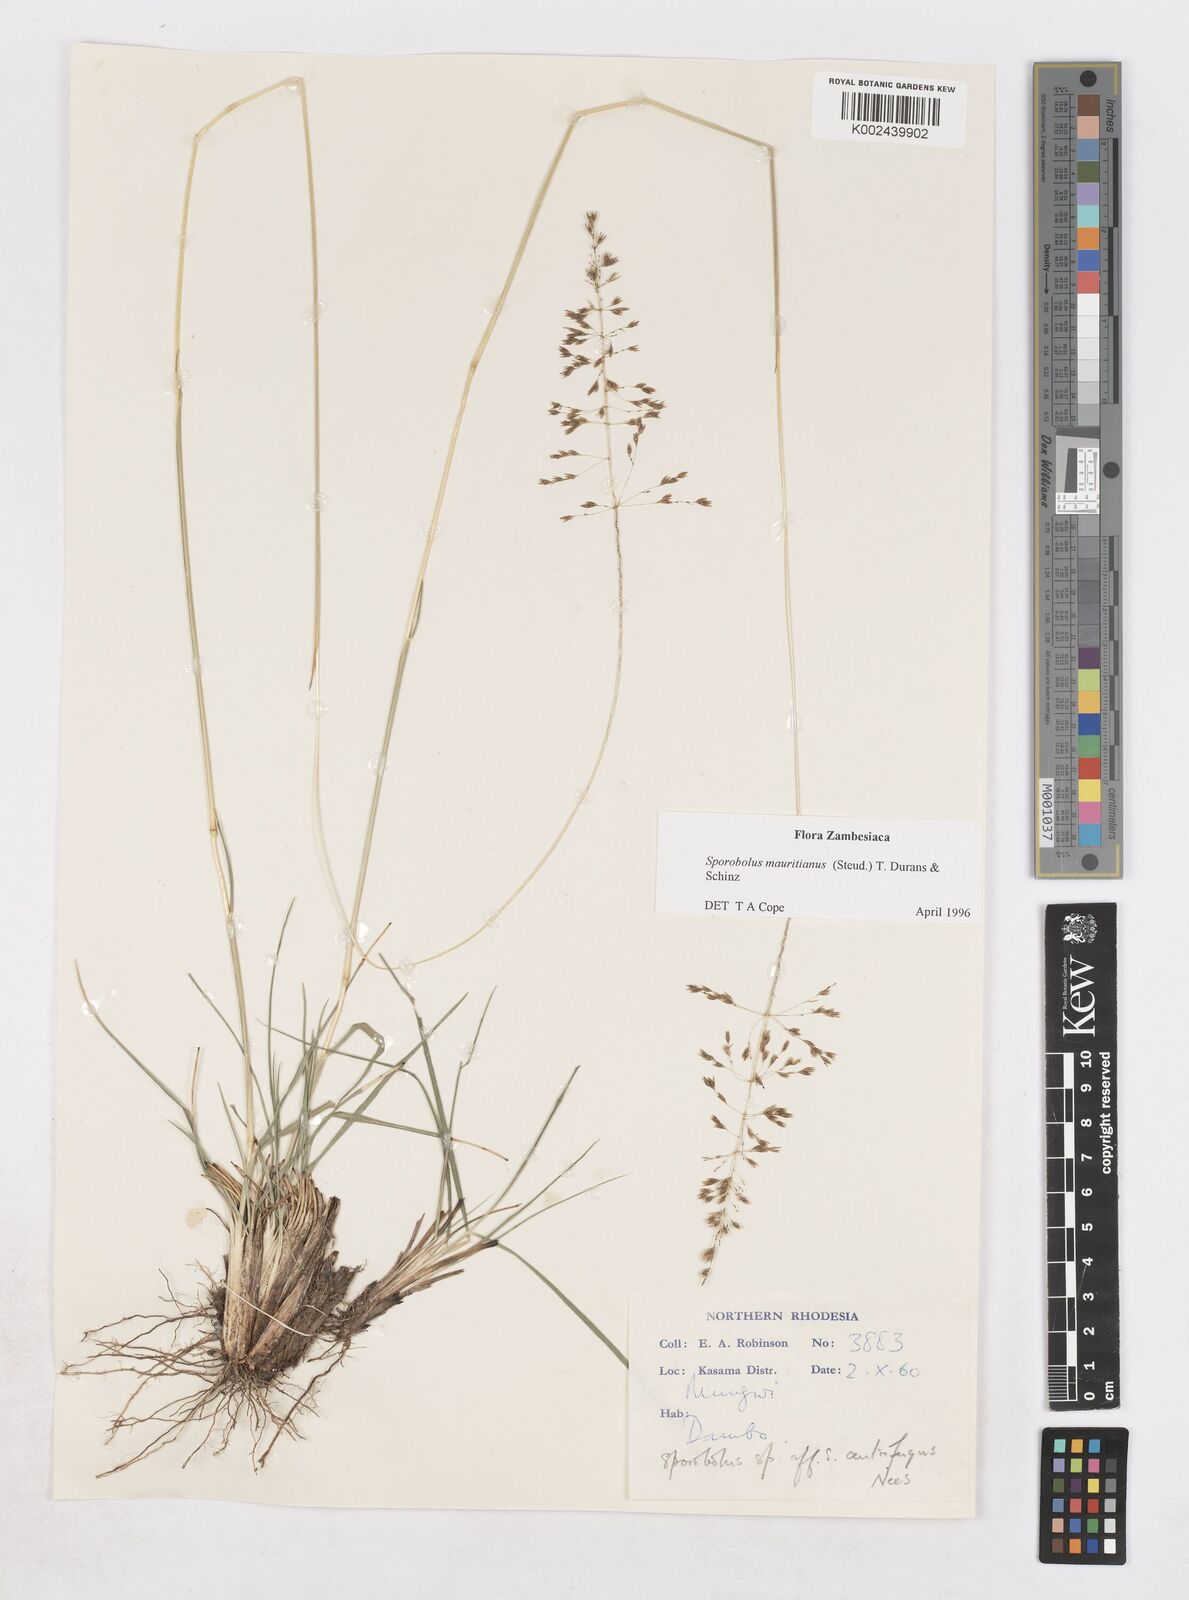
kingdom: Plantae
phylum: Tracheophyta
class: Liliopsida
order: Poales
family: Poaceae
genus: Sporobolus
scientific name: Sporobolus subulatus
